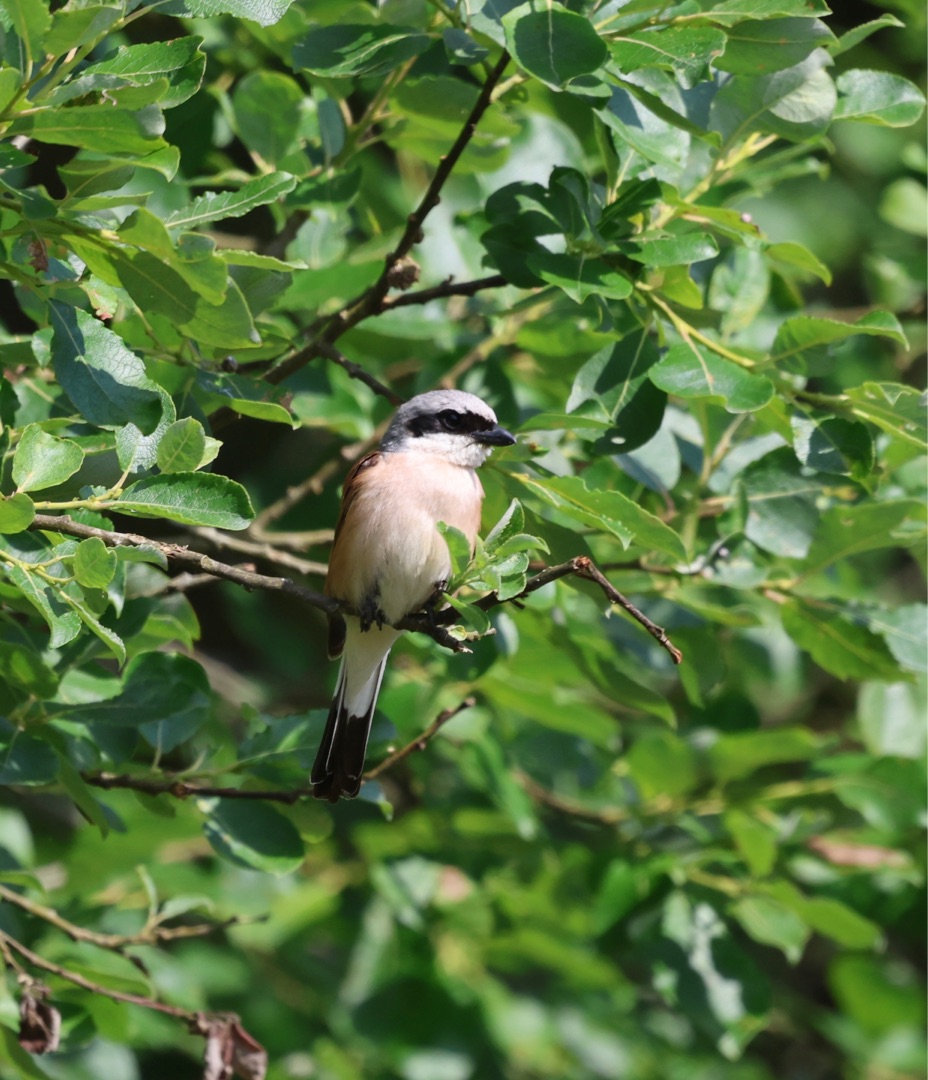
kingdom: Animalia
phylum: Chordata
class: Aves
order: Passeriformes
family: Laniidae
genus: Lanius
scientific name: Lanius collurio
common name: Rødrygget tornskade
